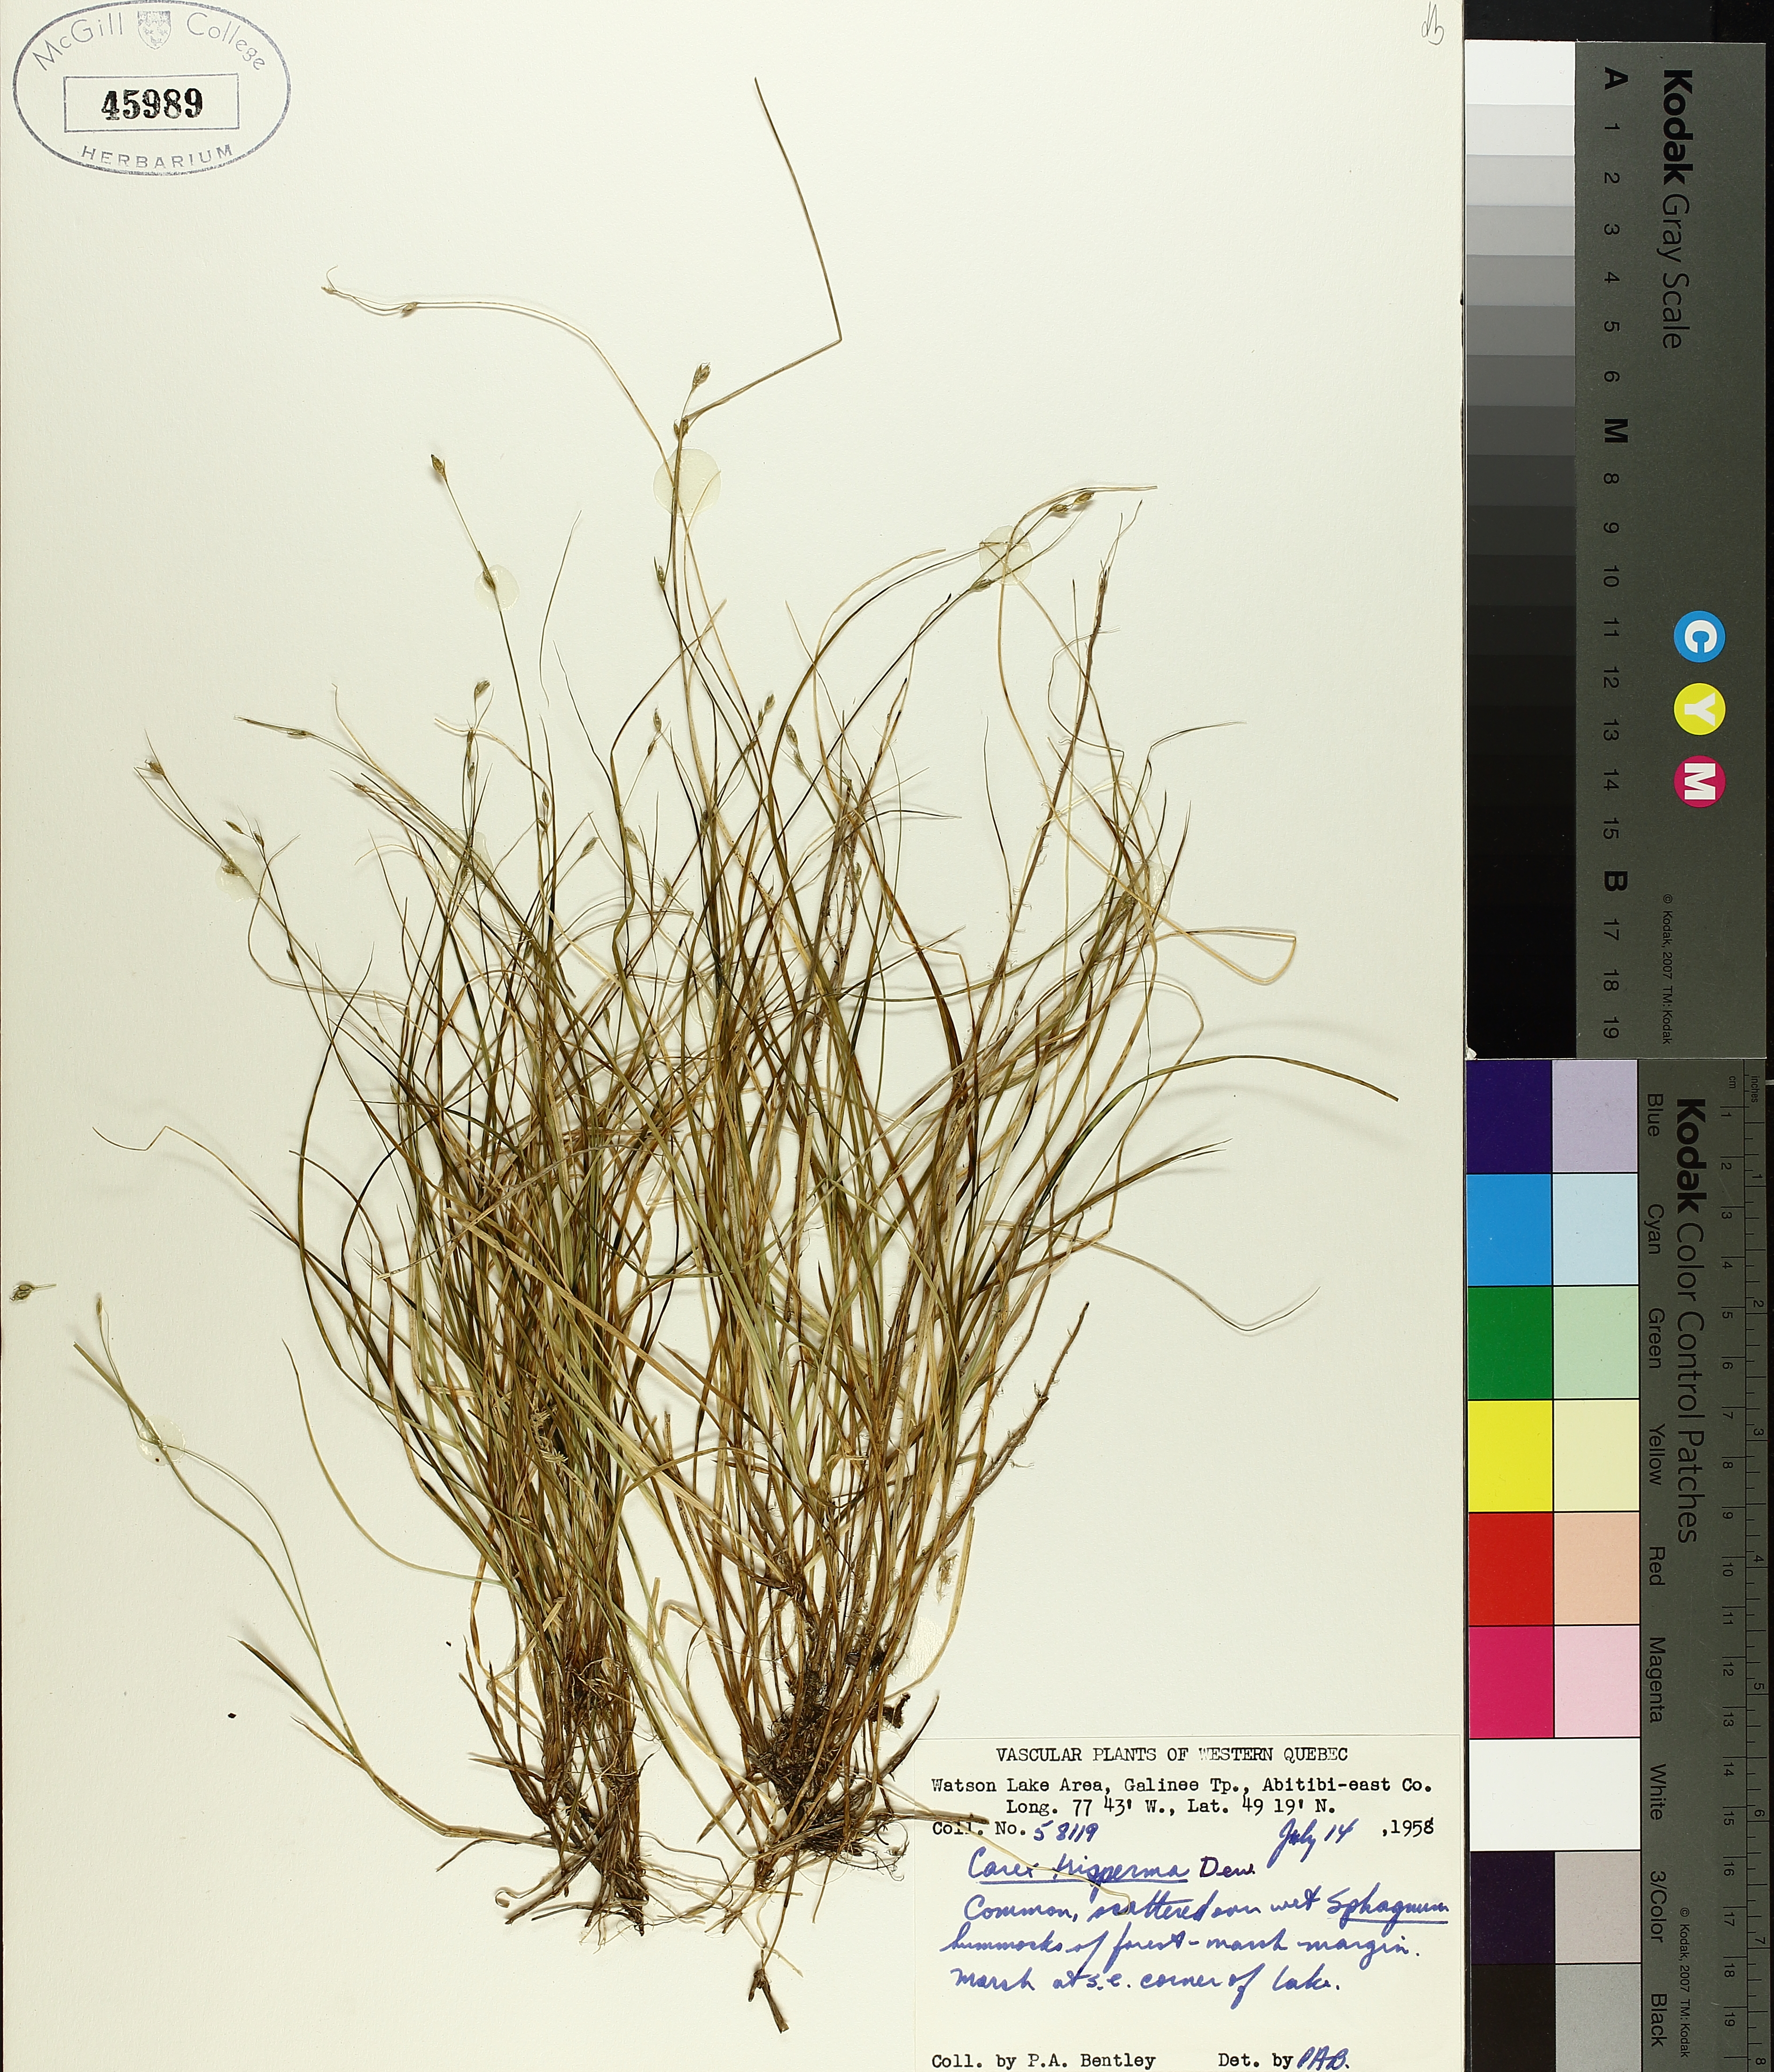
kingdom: Plantae
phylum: Tracheophyta
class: Liliopsida
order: Poales
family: Cyperaceae
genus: Carex
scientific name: Carex trisperma
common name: Three-seeded sedge
